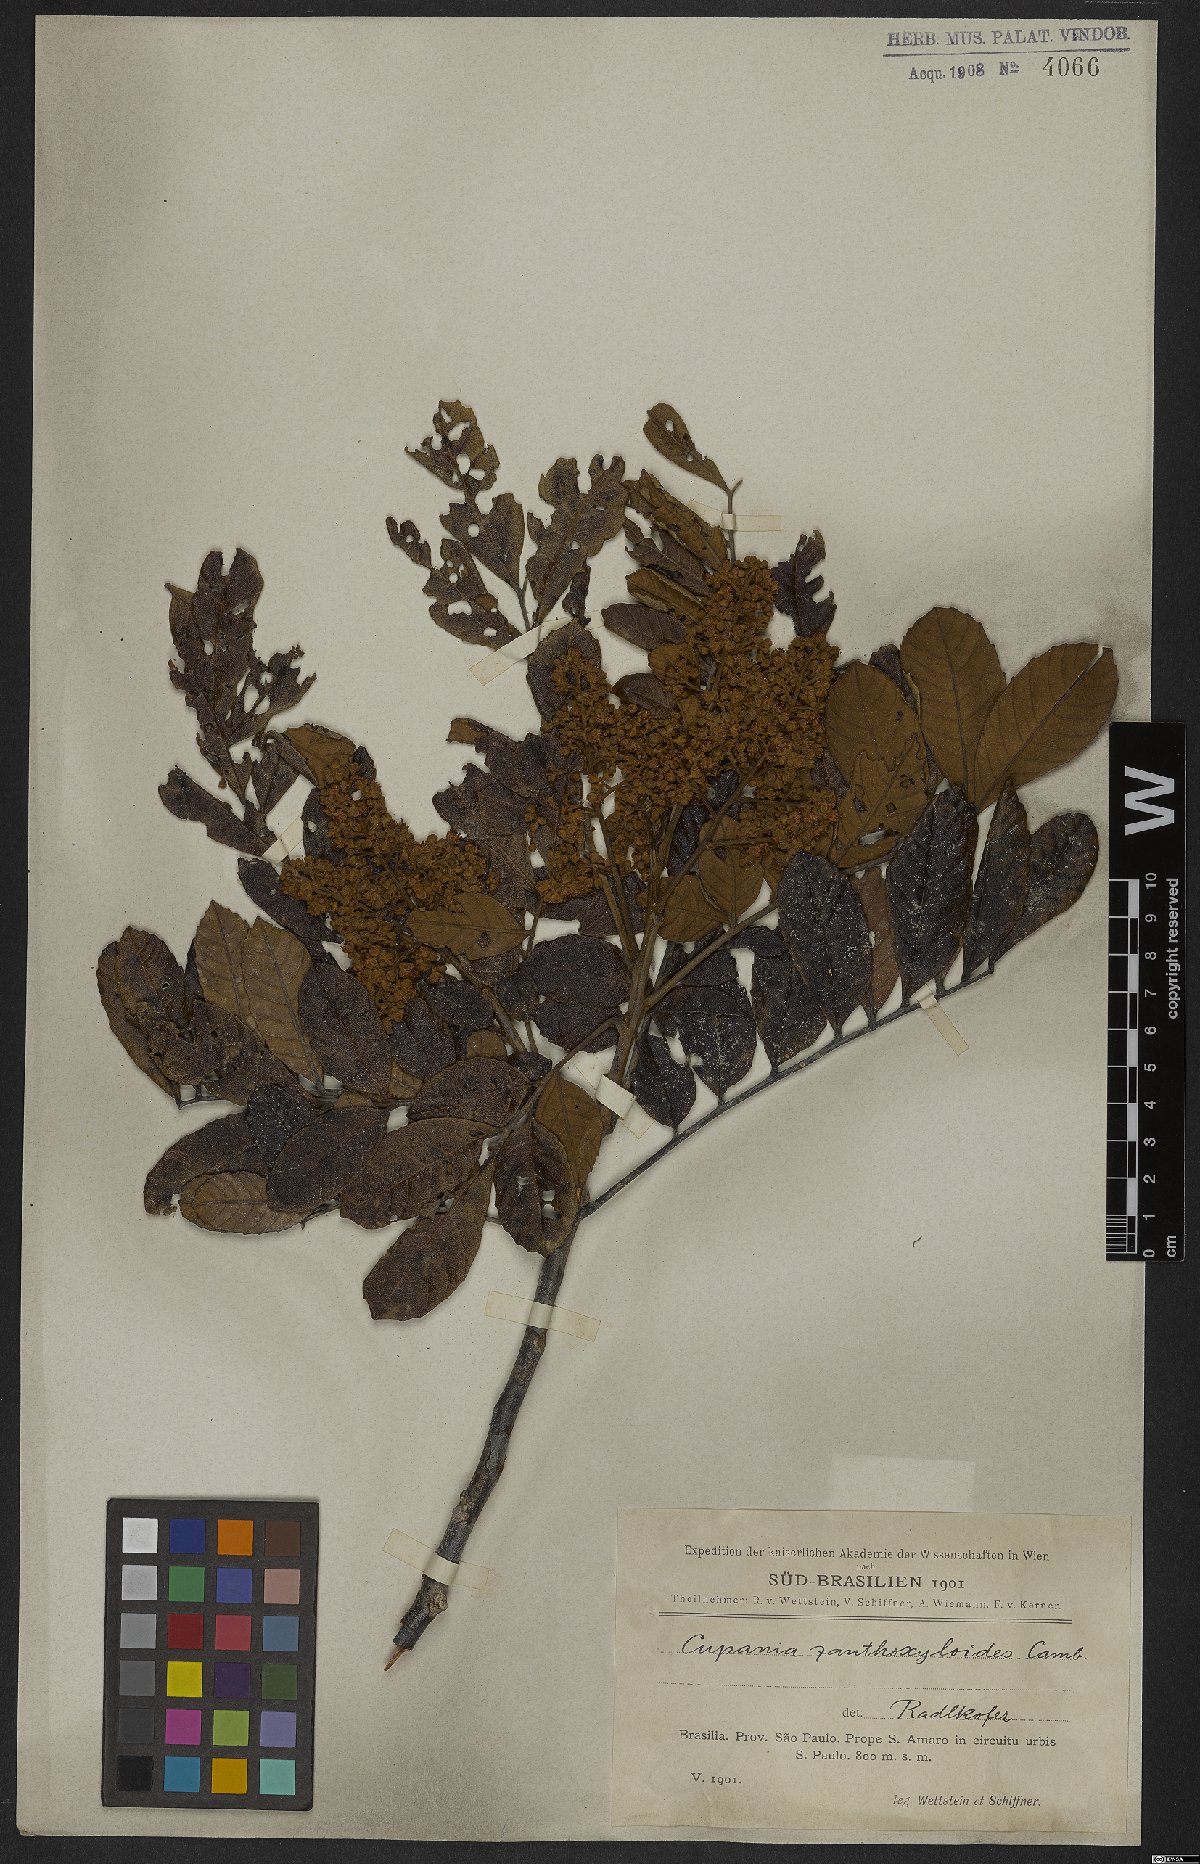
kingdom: Plantae
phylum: Tracheophyta
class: Magnoliopsida
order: Sapindales
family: Sapindaceae
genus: Cupania
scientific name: Cupania zanthoxyloides
